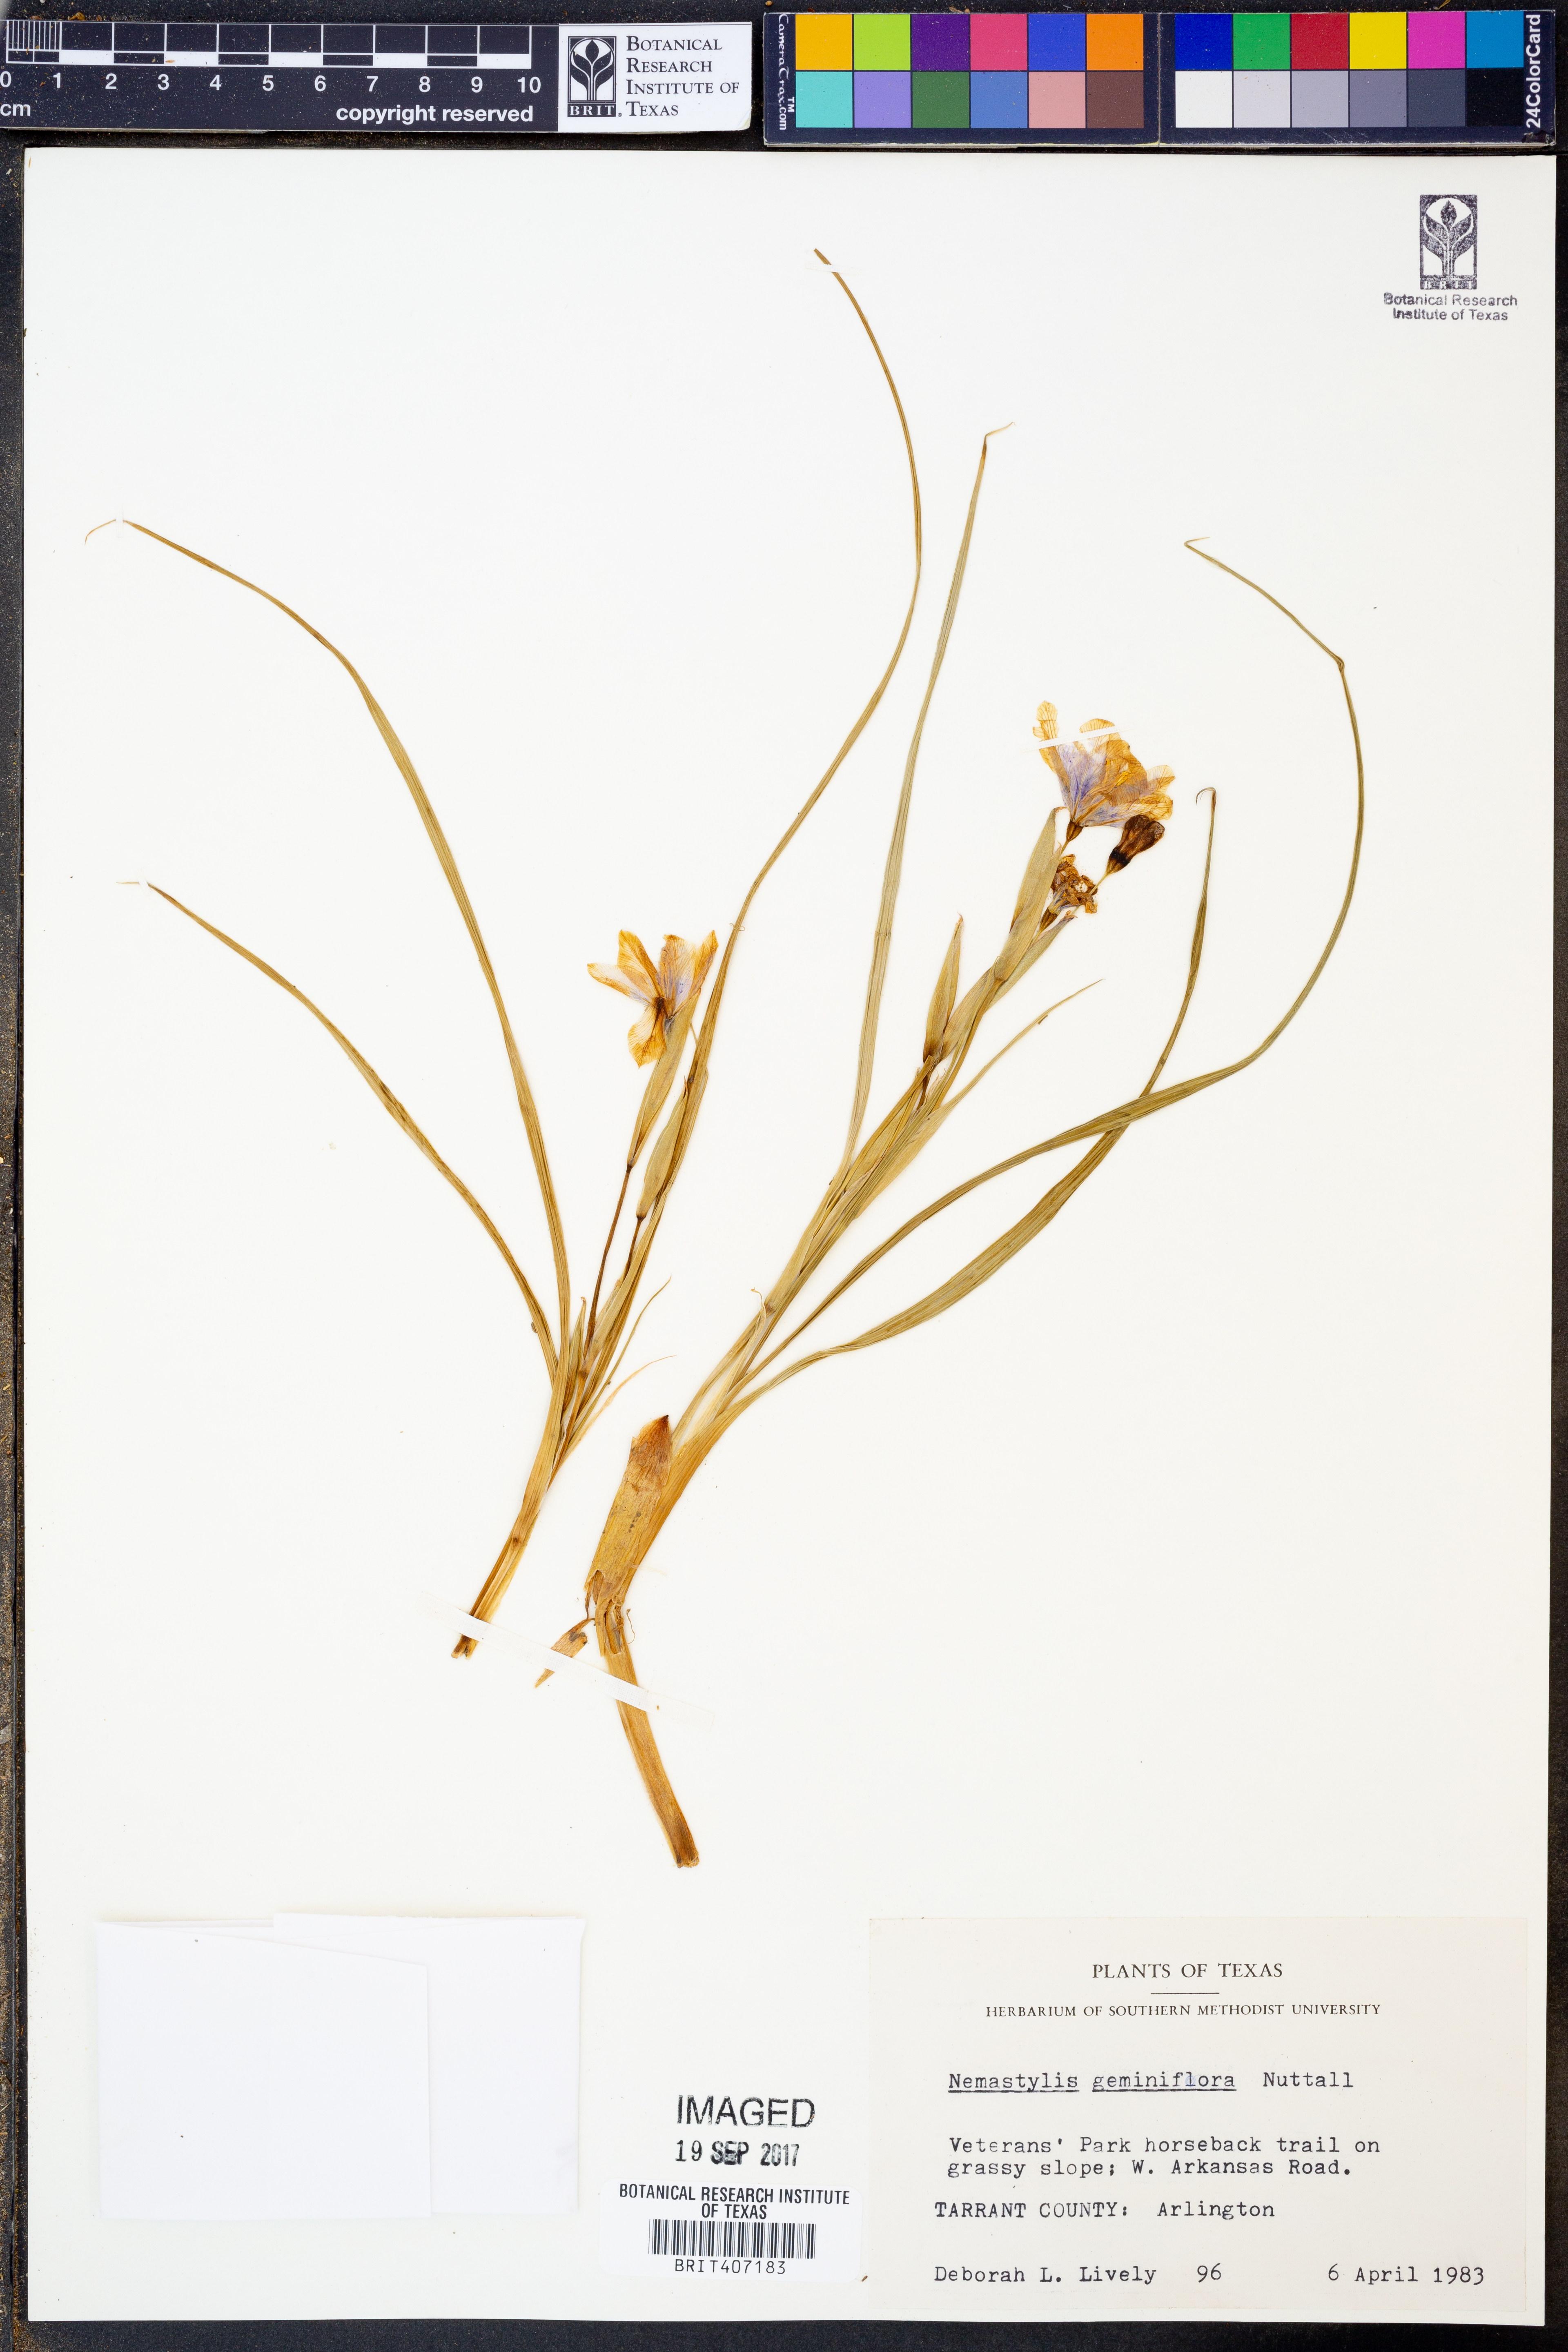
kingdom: Plantae
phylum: Tracheophyta
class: Liliopsida
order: Asparagales
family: Iridaceae
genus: Nemastylis
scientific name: Nemastylis geminiflora
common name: Prairie celestial
